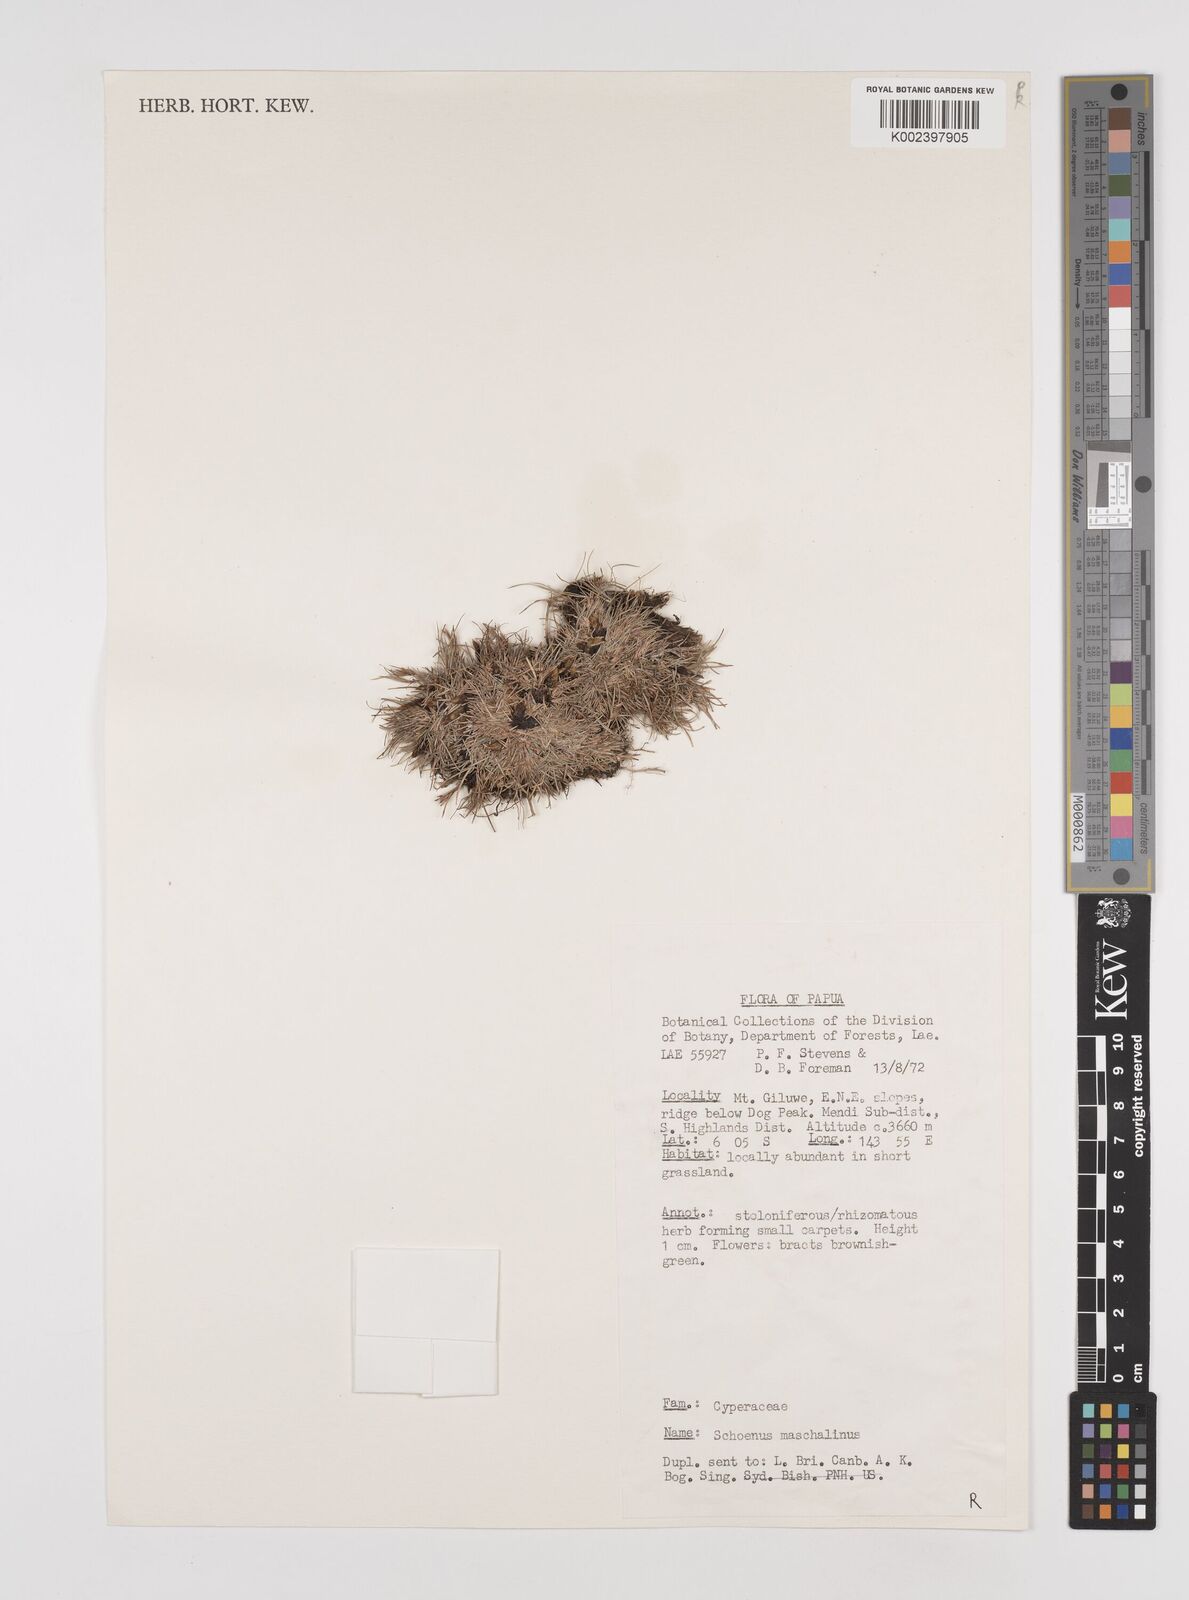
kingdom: Plantae
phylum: Tracheophyta
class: Liliopsida
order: Poales
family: Cyperaceae
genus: Schoenus
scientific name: Schoenus maschalinus
